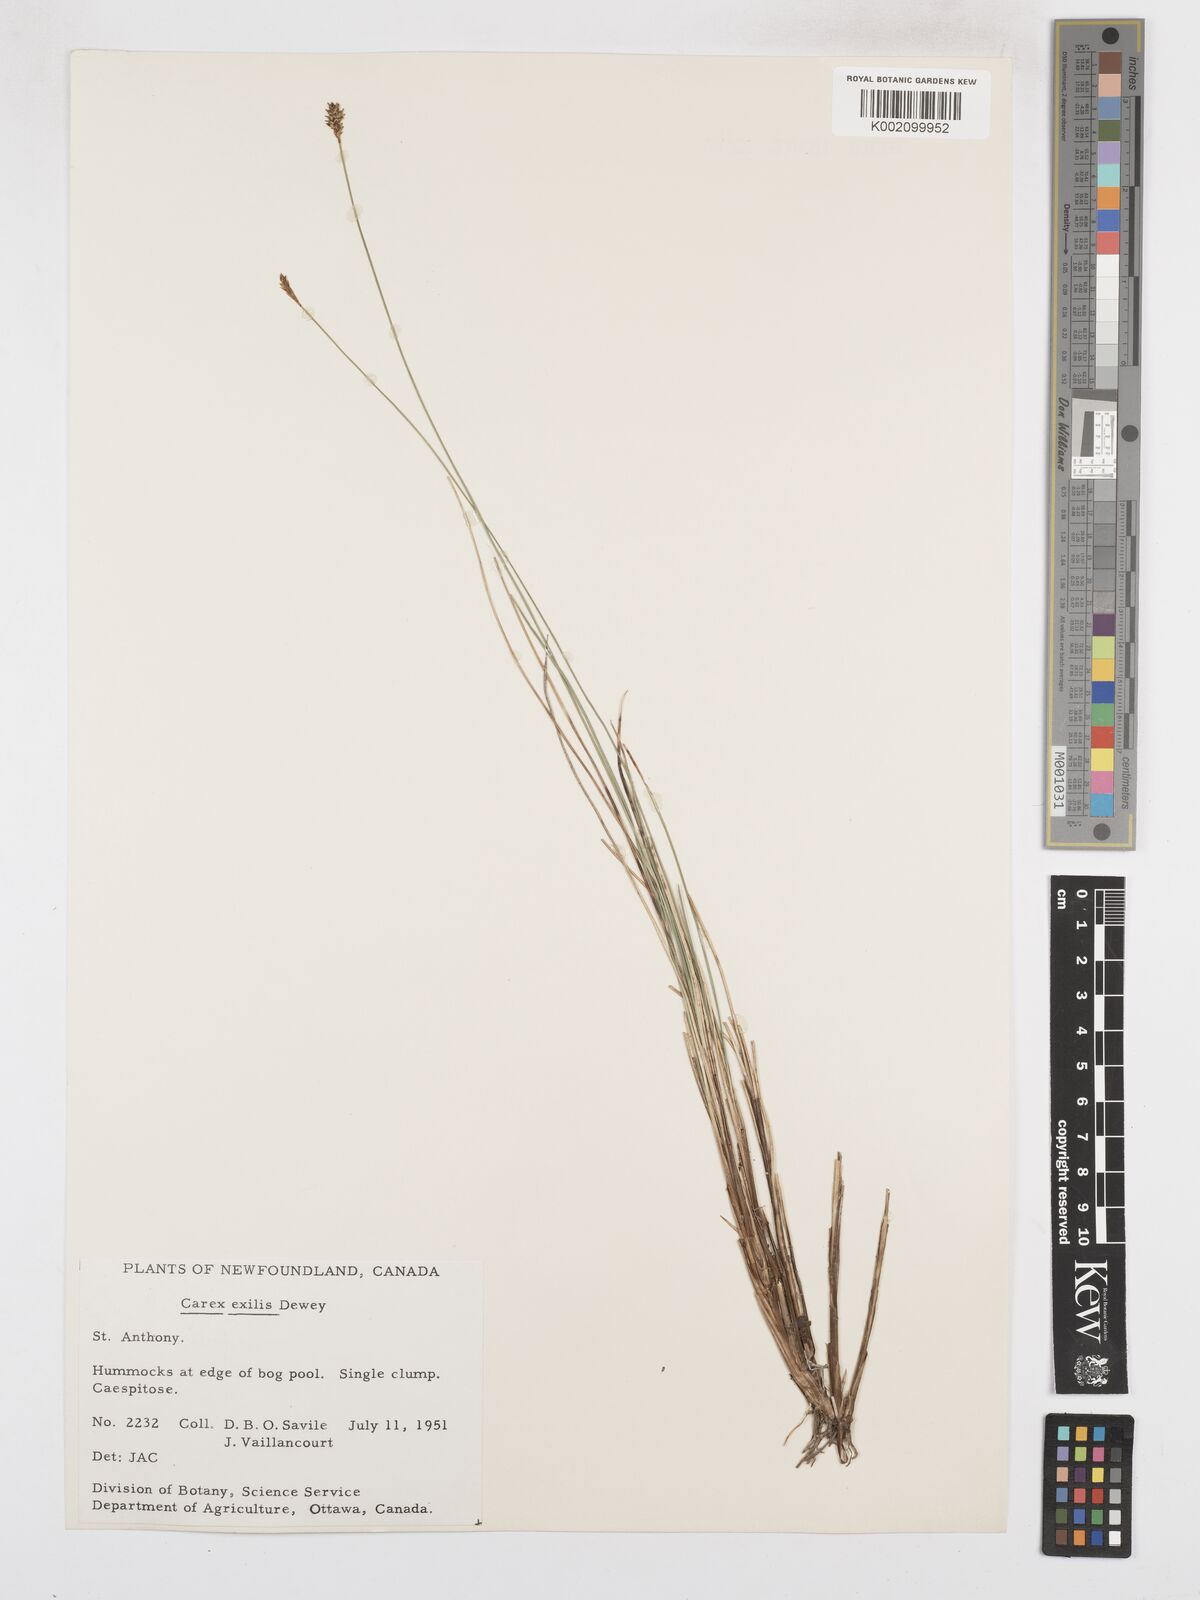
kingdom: Plantae
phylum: Tracheophyta
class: Liliopsida
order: Poales
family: Cyperaceae
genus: Carex
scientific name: Carex exilis
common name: Coastal sedge
